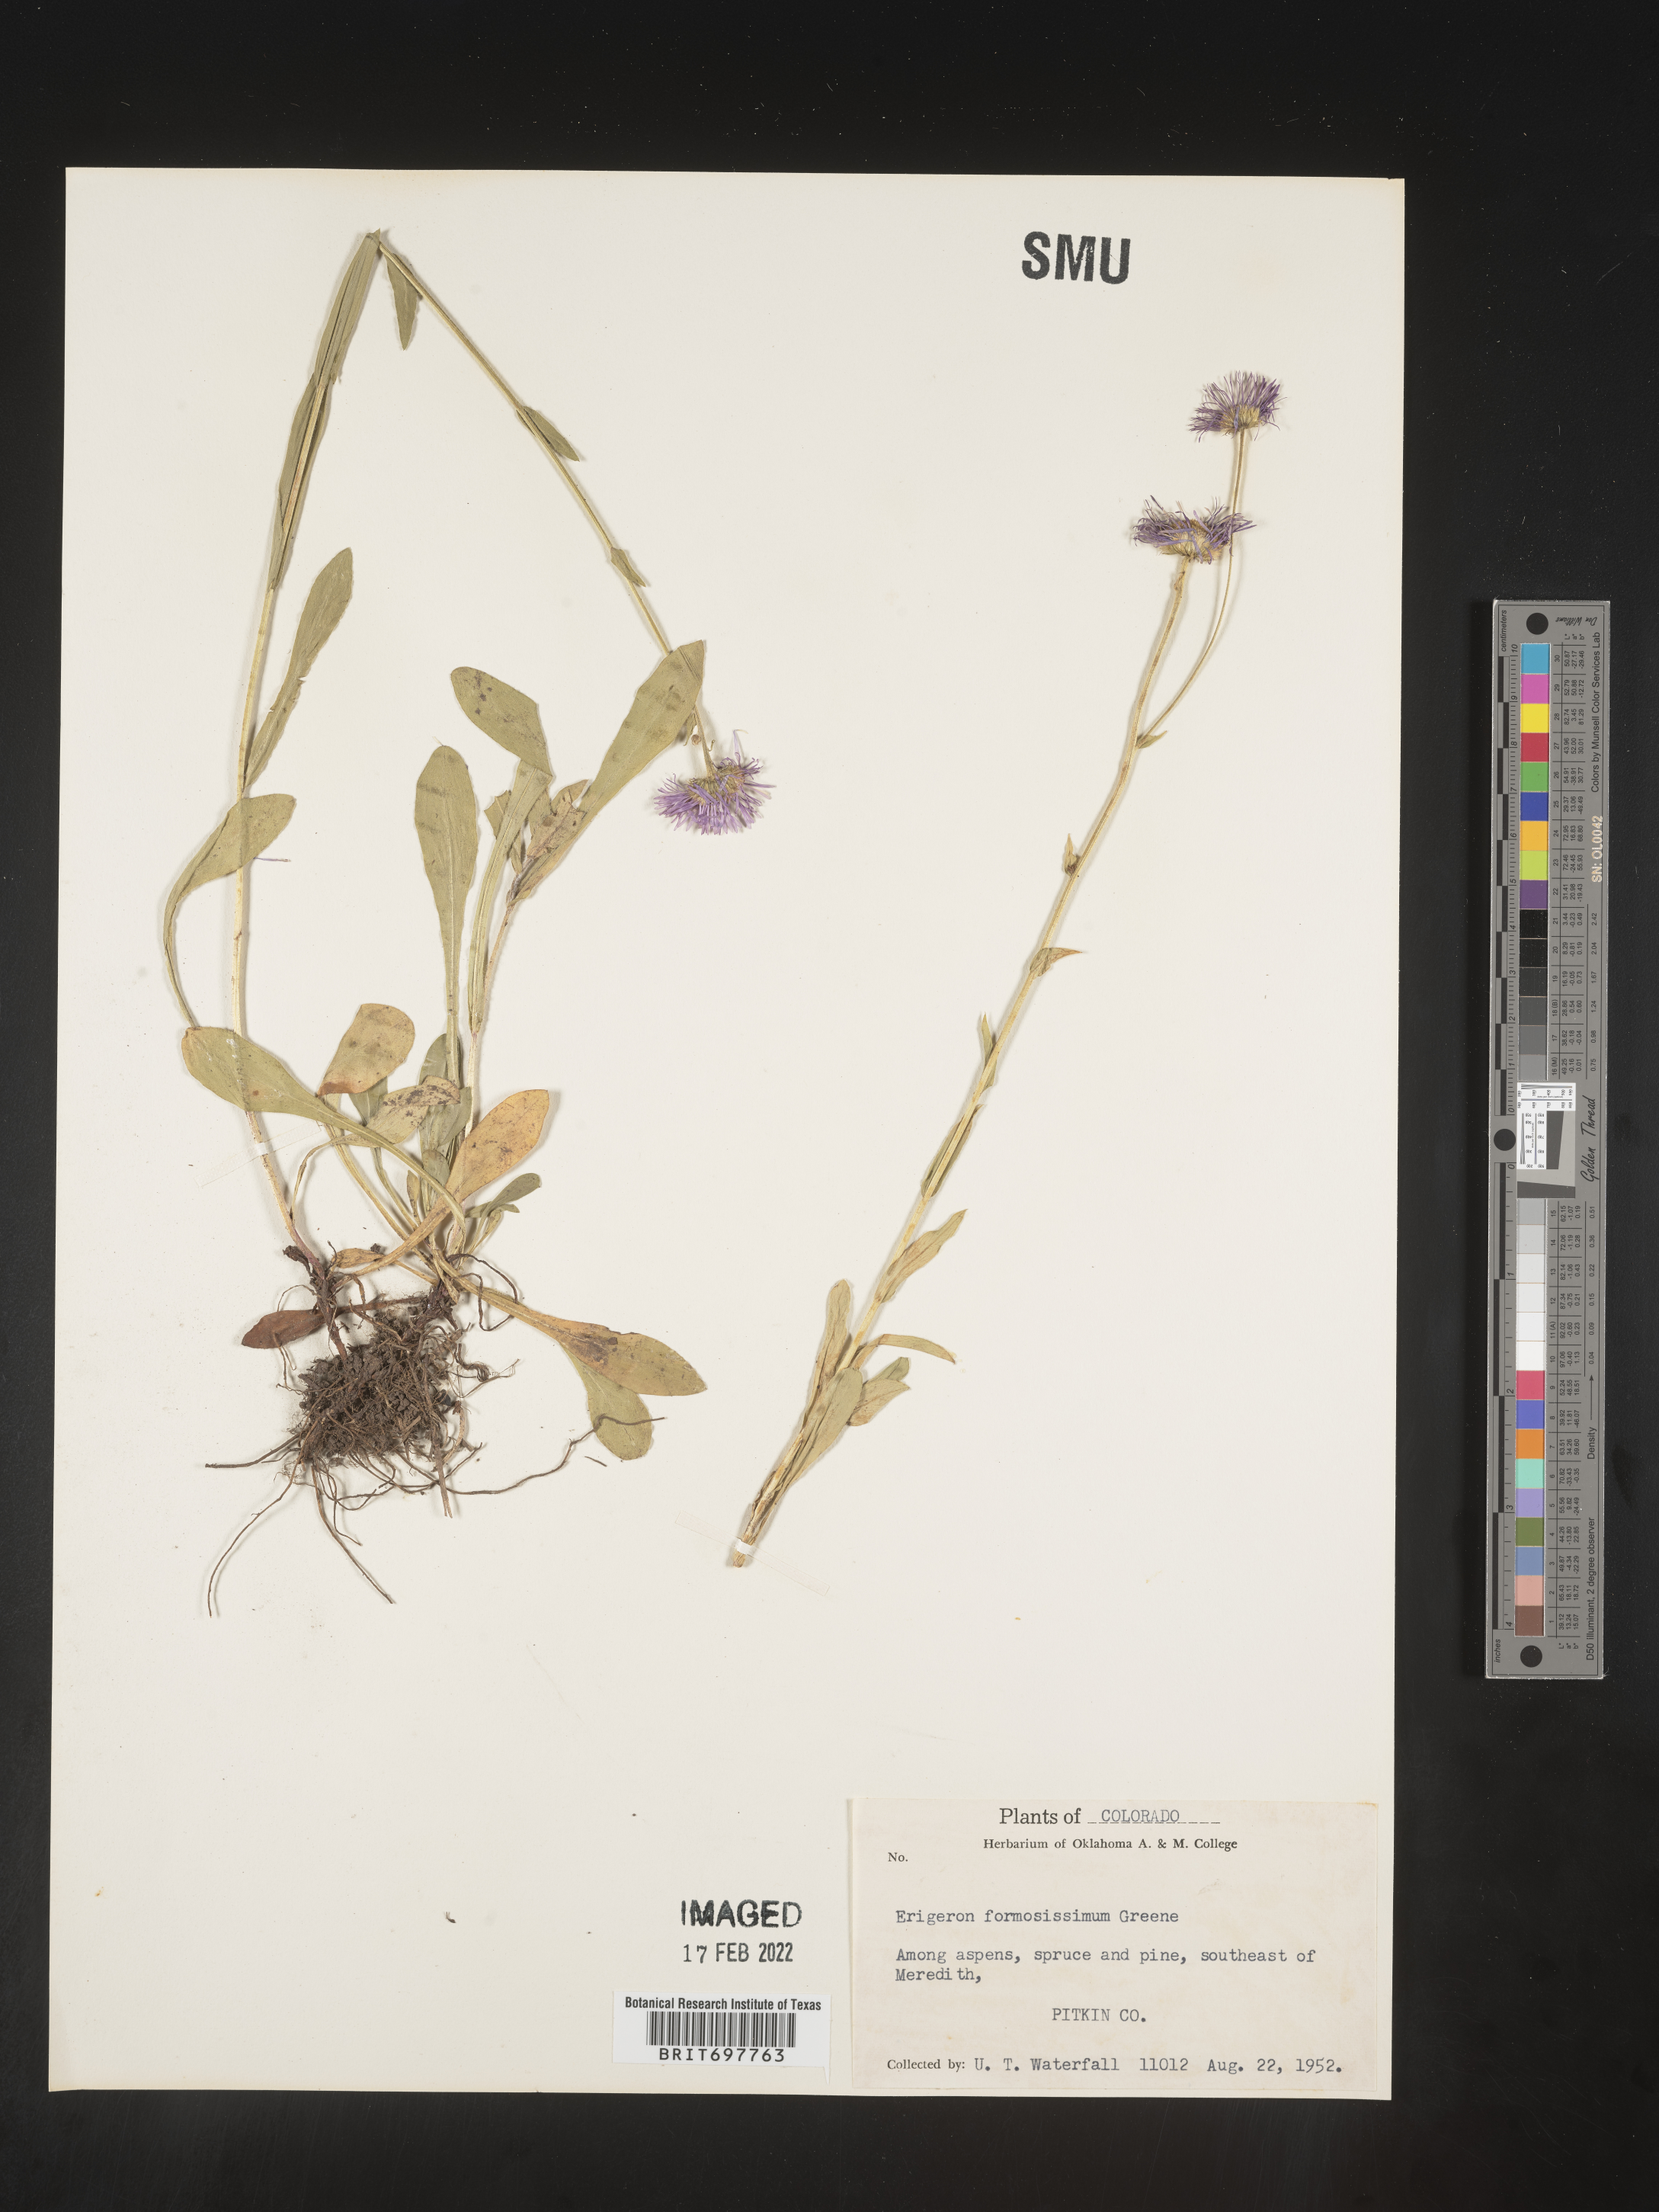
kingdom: Plantae
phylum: Tracheophyta
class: Magnoliopsida
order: Asterales
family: Asteraceae
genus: Erigeron
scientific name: Erigeron formosissimus
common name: Beautiful fleabane
